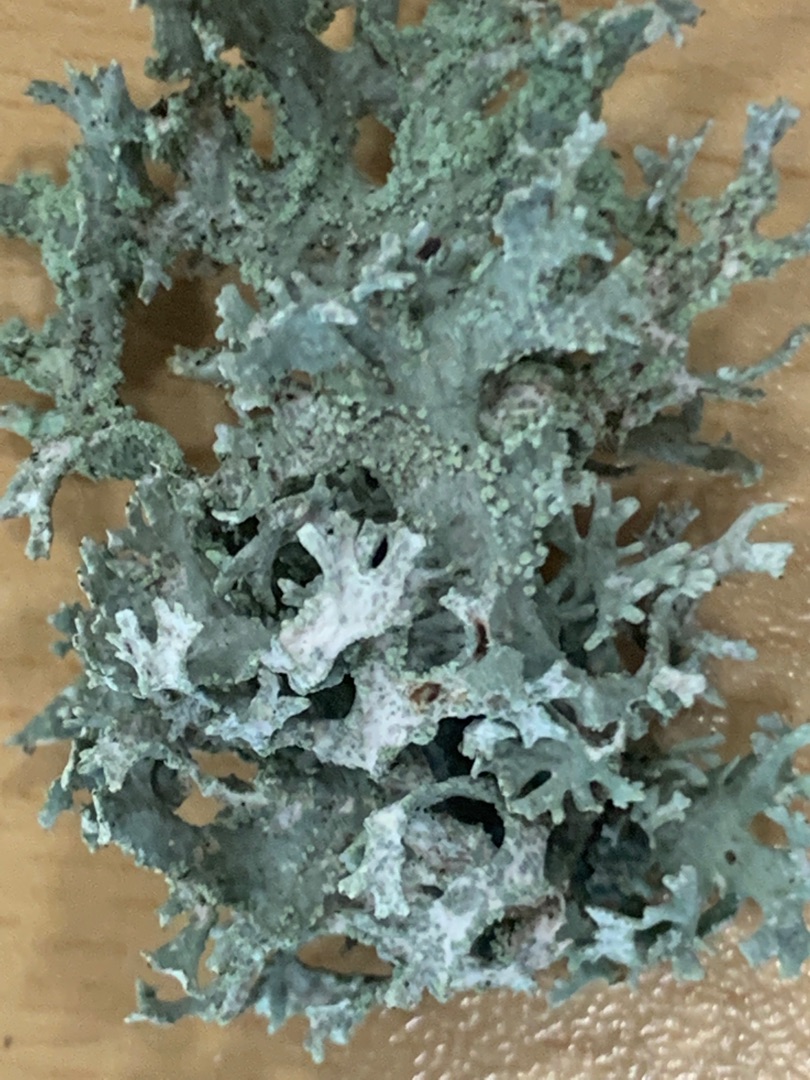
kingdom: Fungi
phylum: Ascomycota
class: Lecanoromycetes
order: Lecanorales
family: Parmeliaceae
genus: Evernia
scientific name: Evernia prunastri
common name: Almindelig slåenlav
